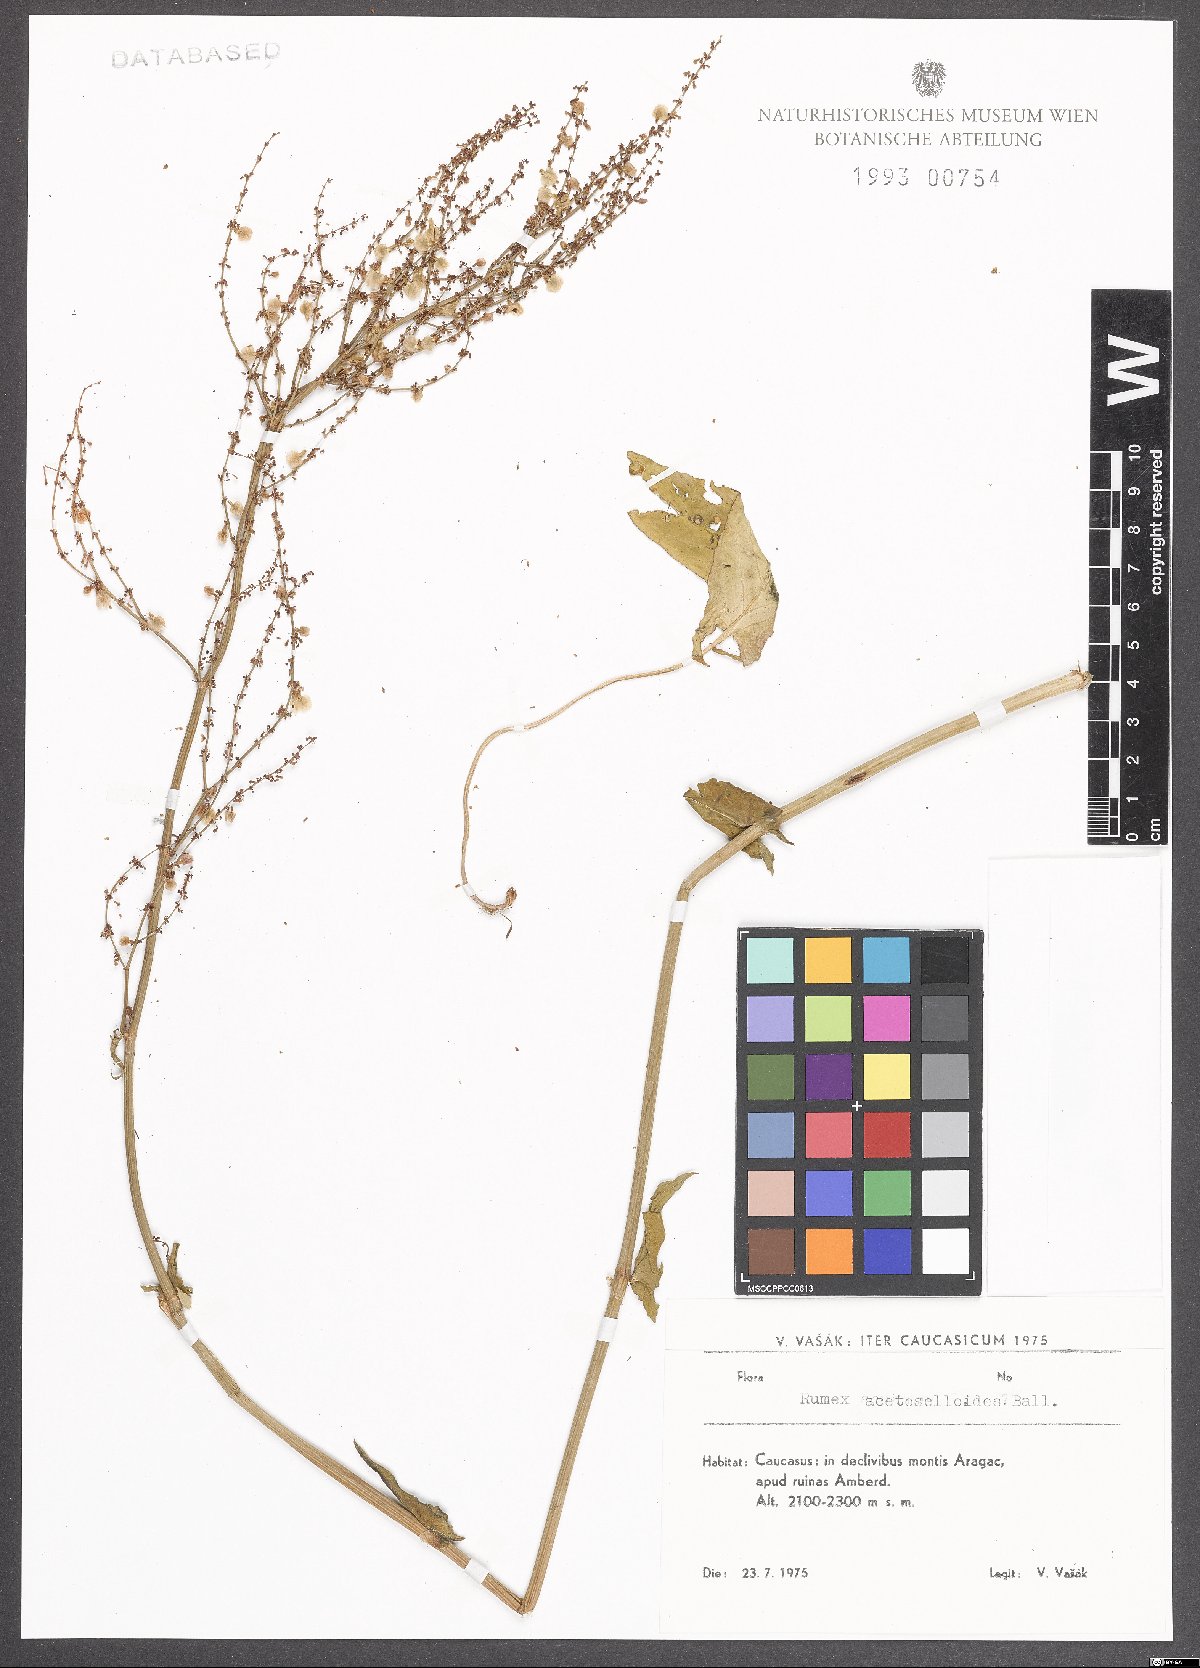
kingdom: Plantae
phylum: Tracheophyta
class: Magnoliopsida
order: Caryophyllales
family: Polygonaceae
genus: Rumex
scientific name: Rumex acetosella
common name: Common sheep sorrel
